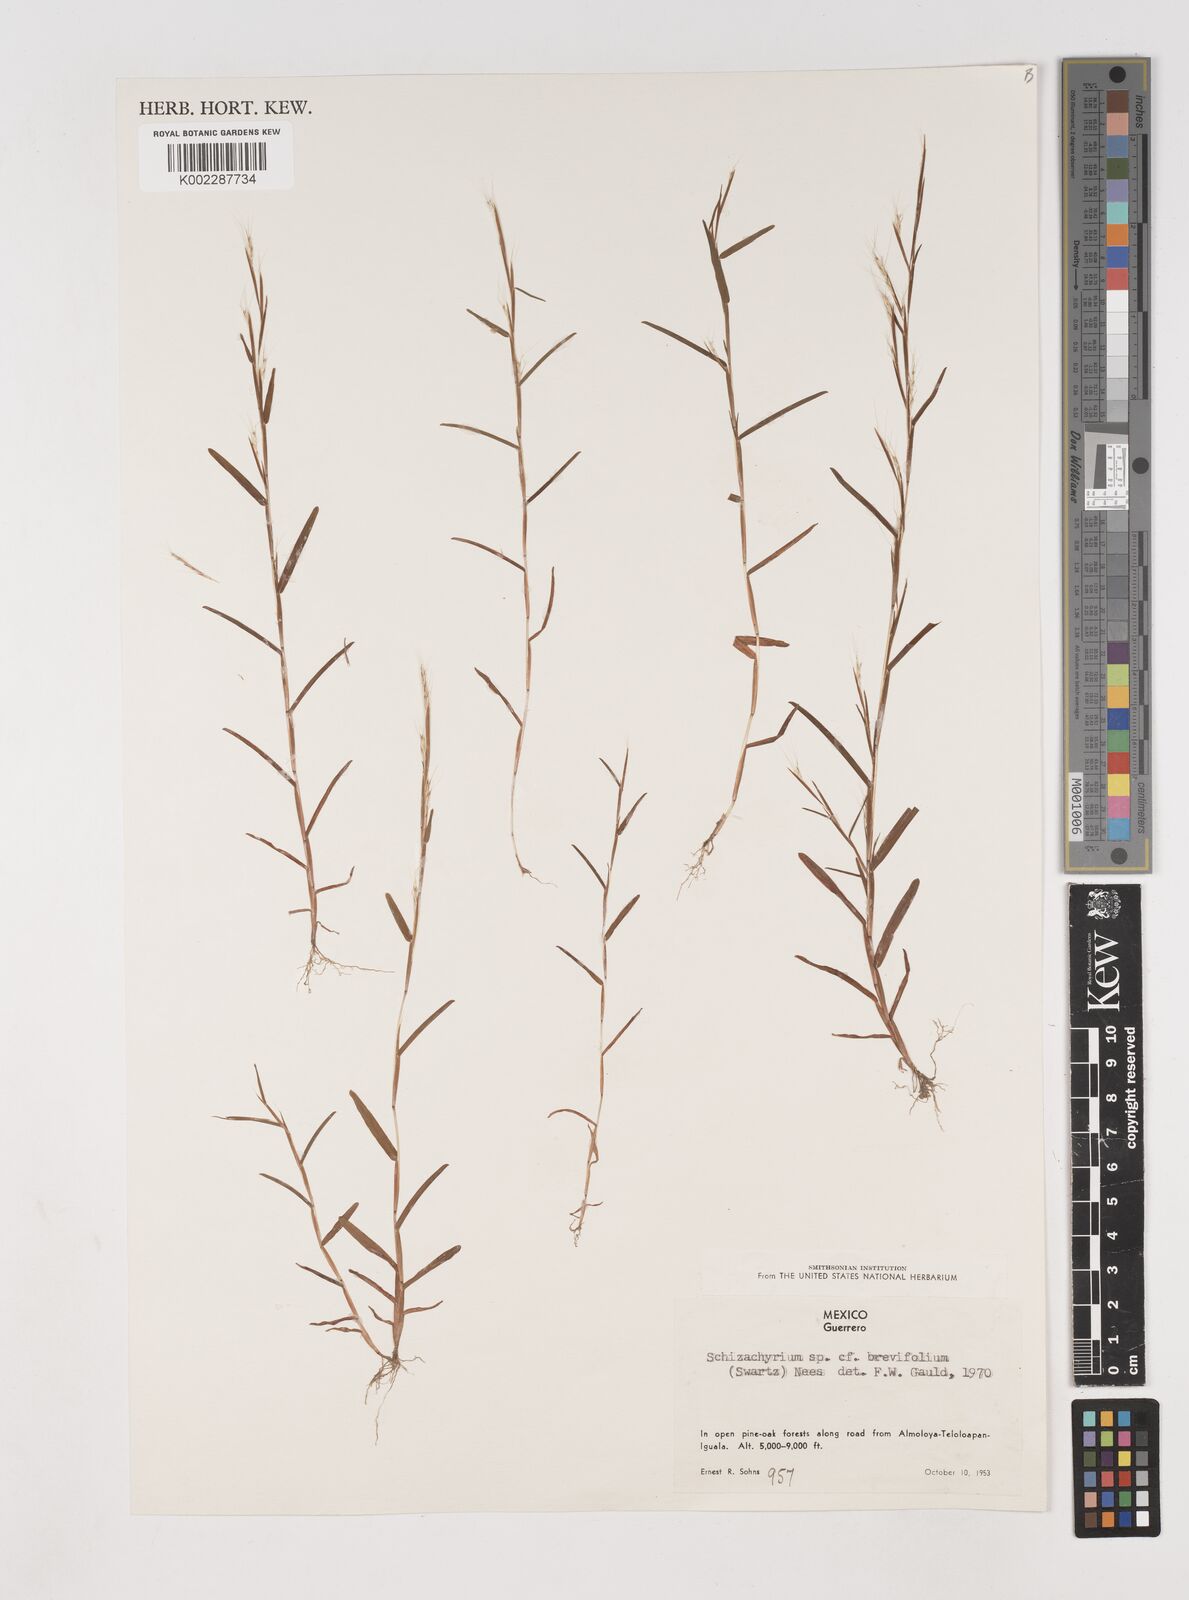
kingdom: Plantae
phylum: Tracheophyta
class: Liliopsida
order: Poales
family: Poaceae
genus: Schizachyrium
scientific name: Schizachyrium brevifolium
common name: Serillo dulce
